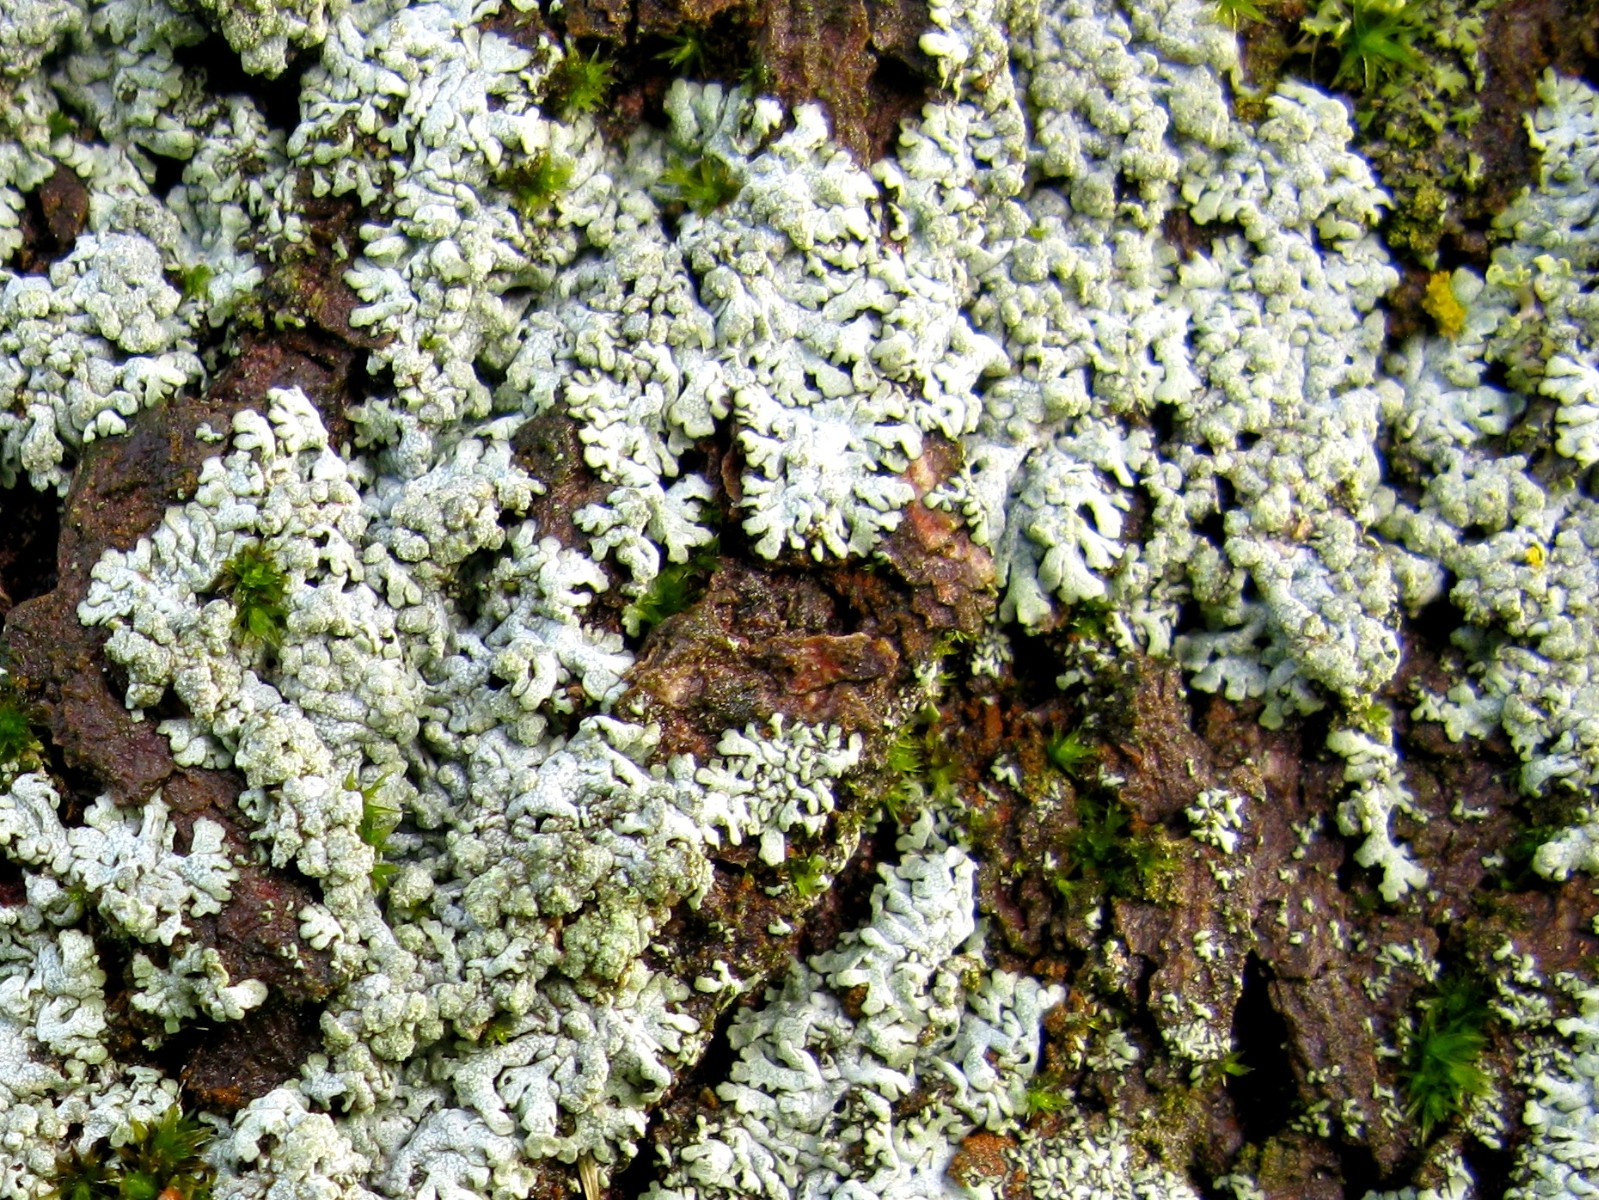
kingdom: Fungi
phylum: Ascomycota
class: Lecanoromycetes
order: Caliciales
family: Physciaceae
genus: Physcia
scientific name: Physcia caesia
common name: blågrå rosetlav
